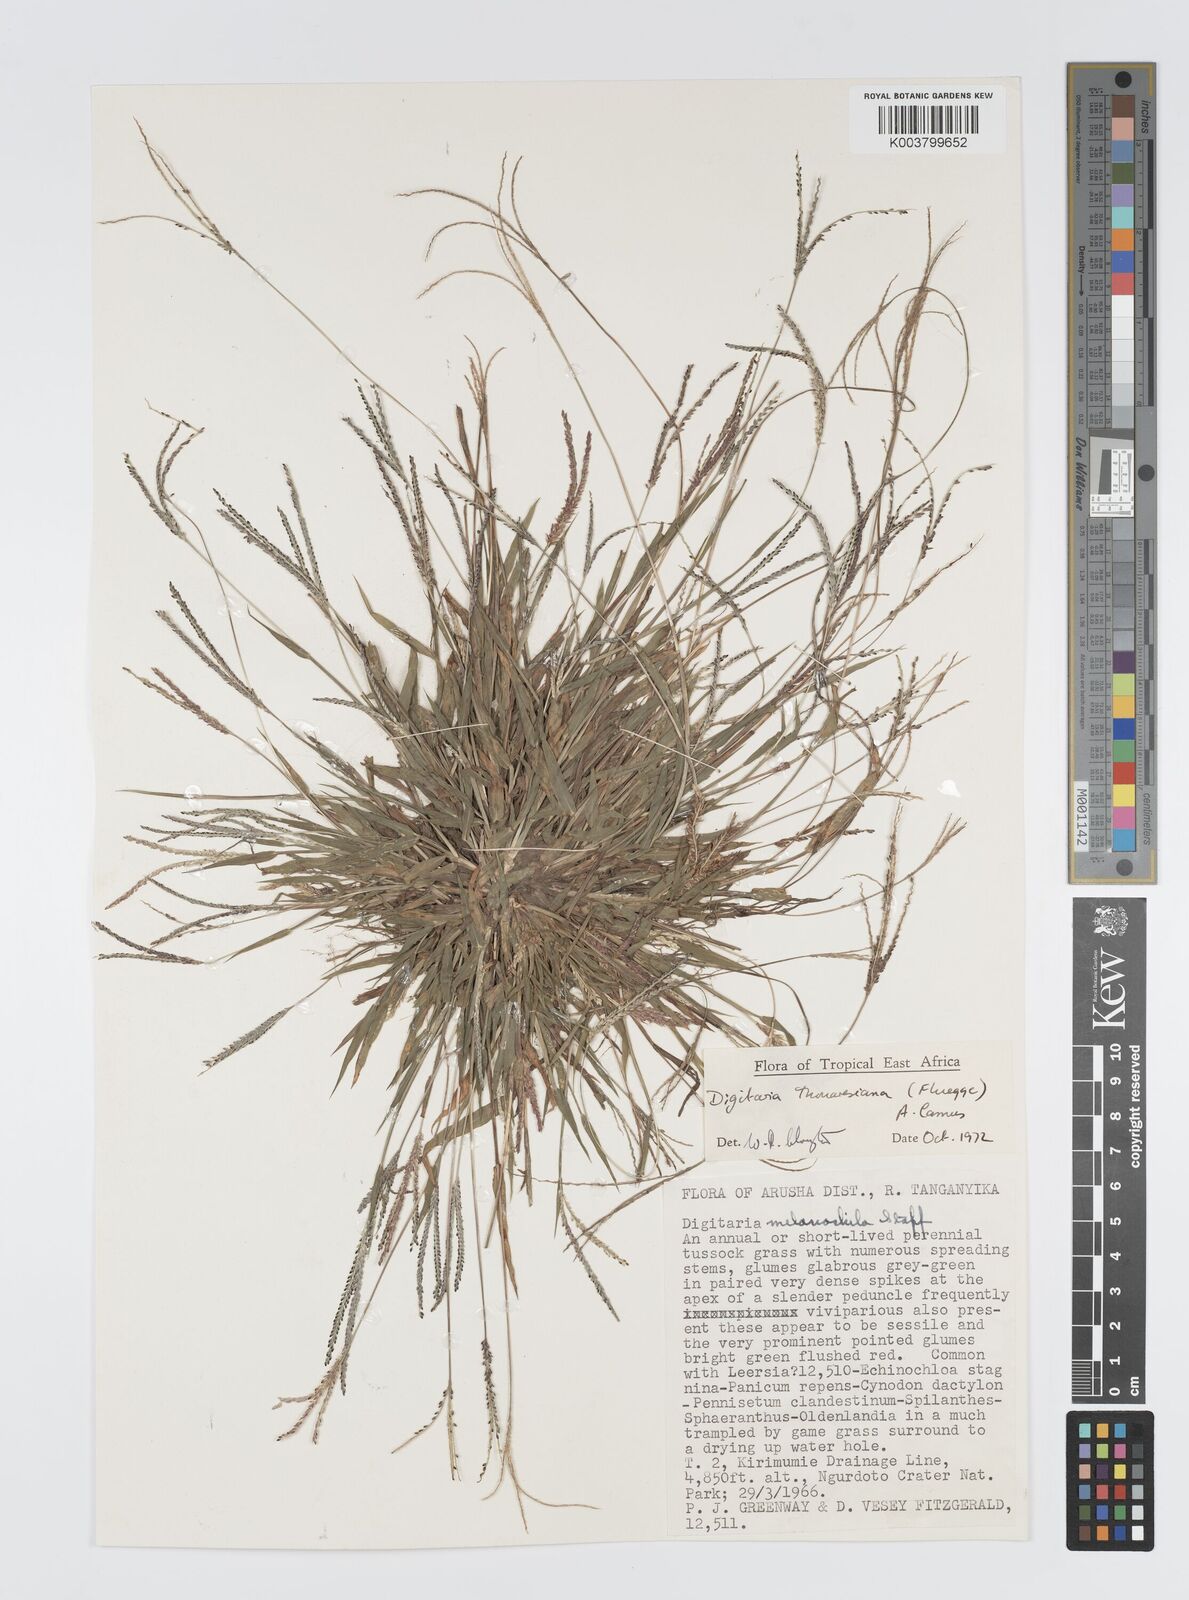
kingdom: Plantae
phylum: Tracheophyta
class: Liliopsida
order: Poales
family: Poaceae
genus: Digitaria
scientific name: Digitaria thouarsiana
